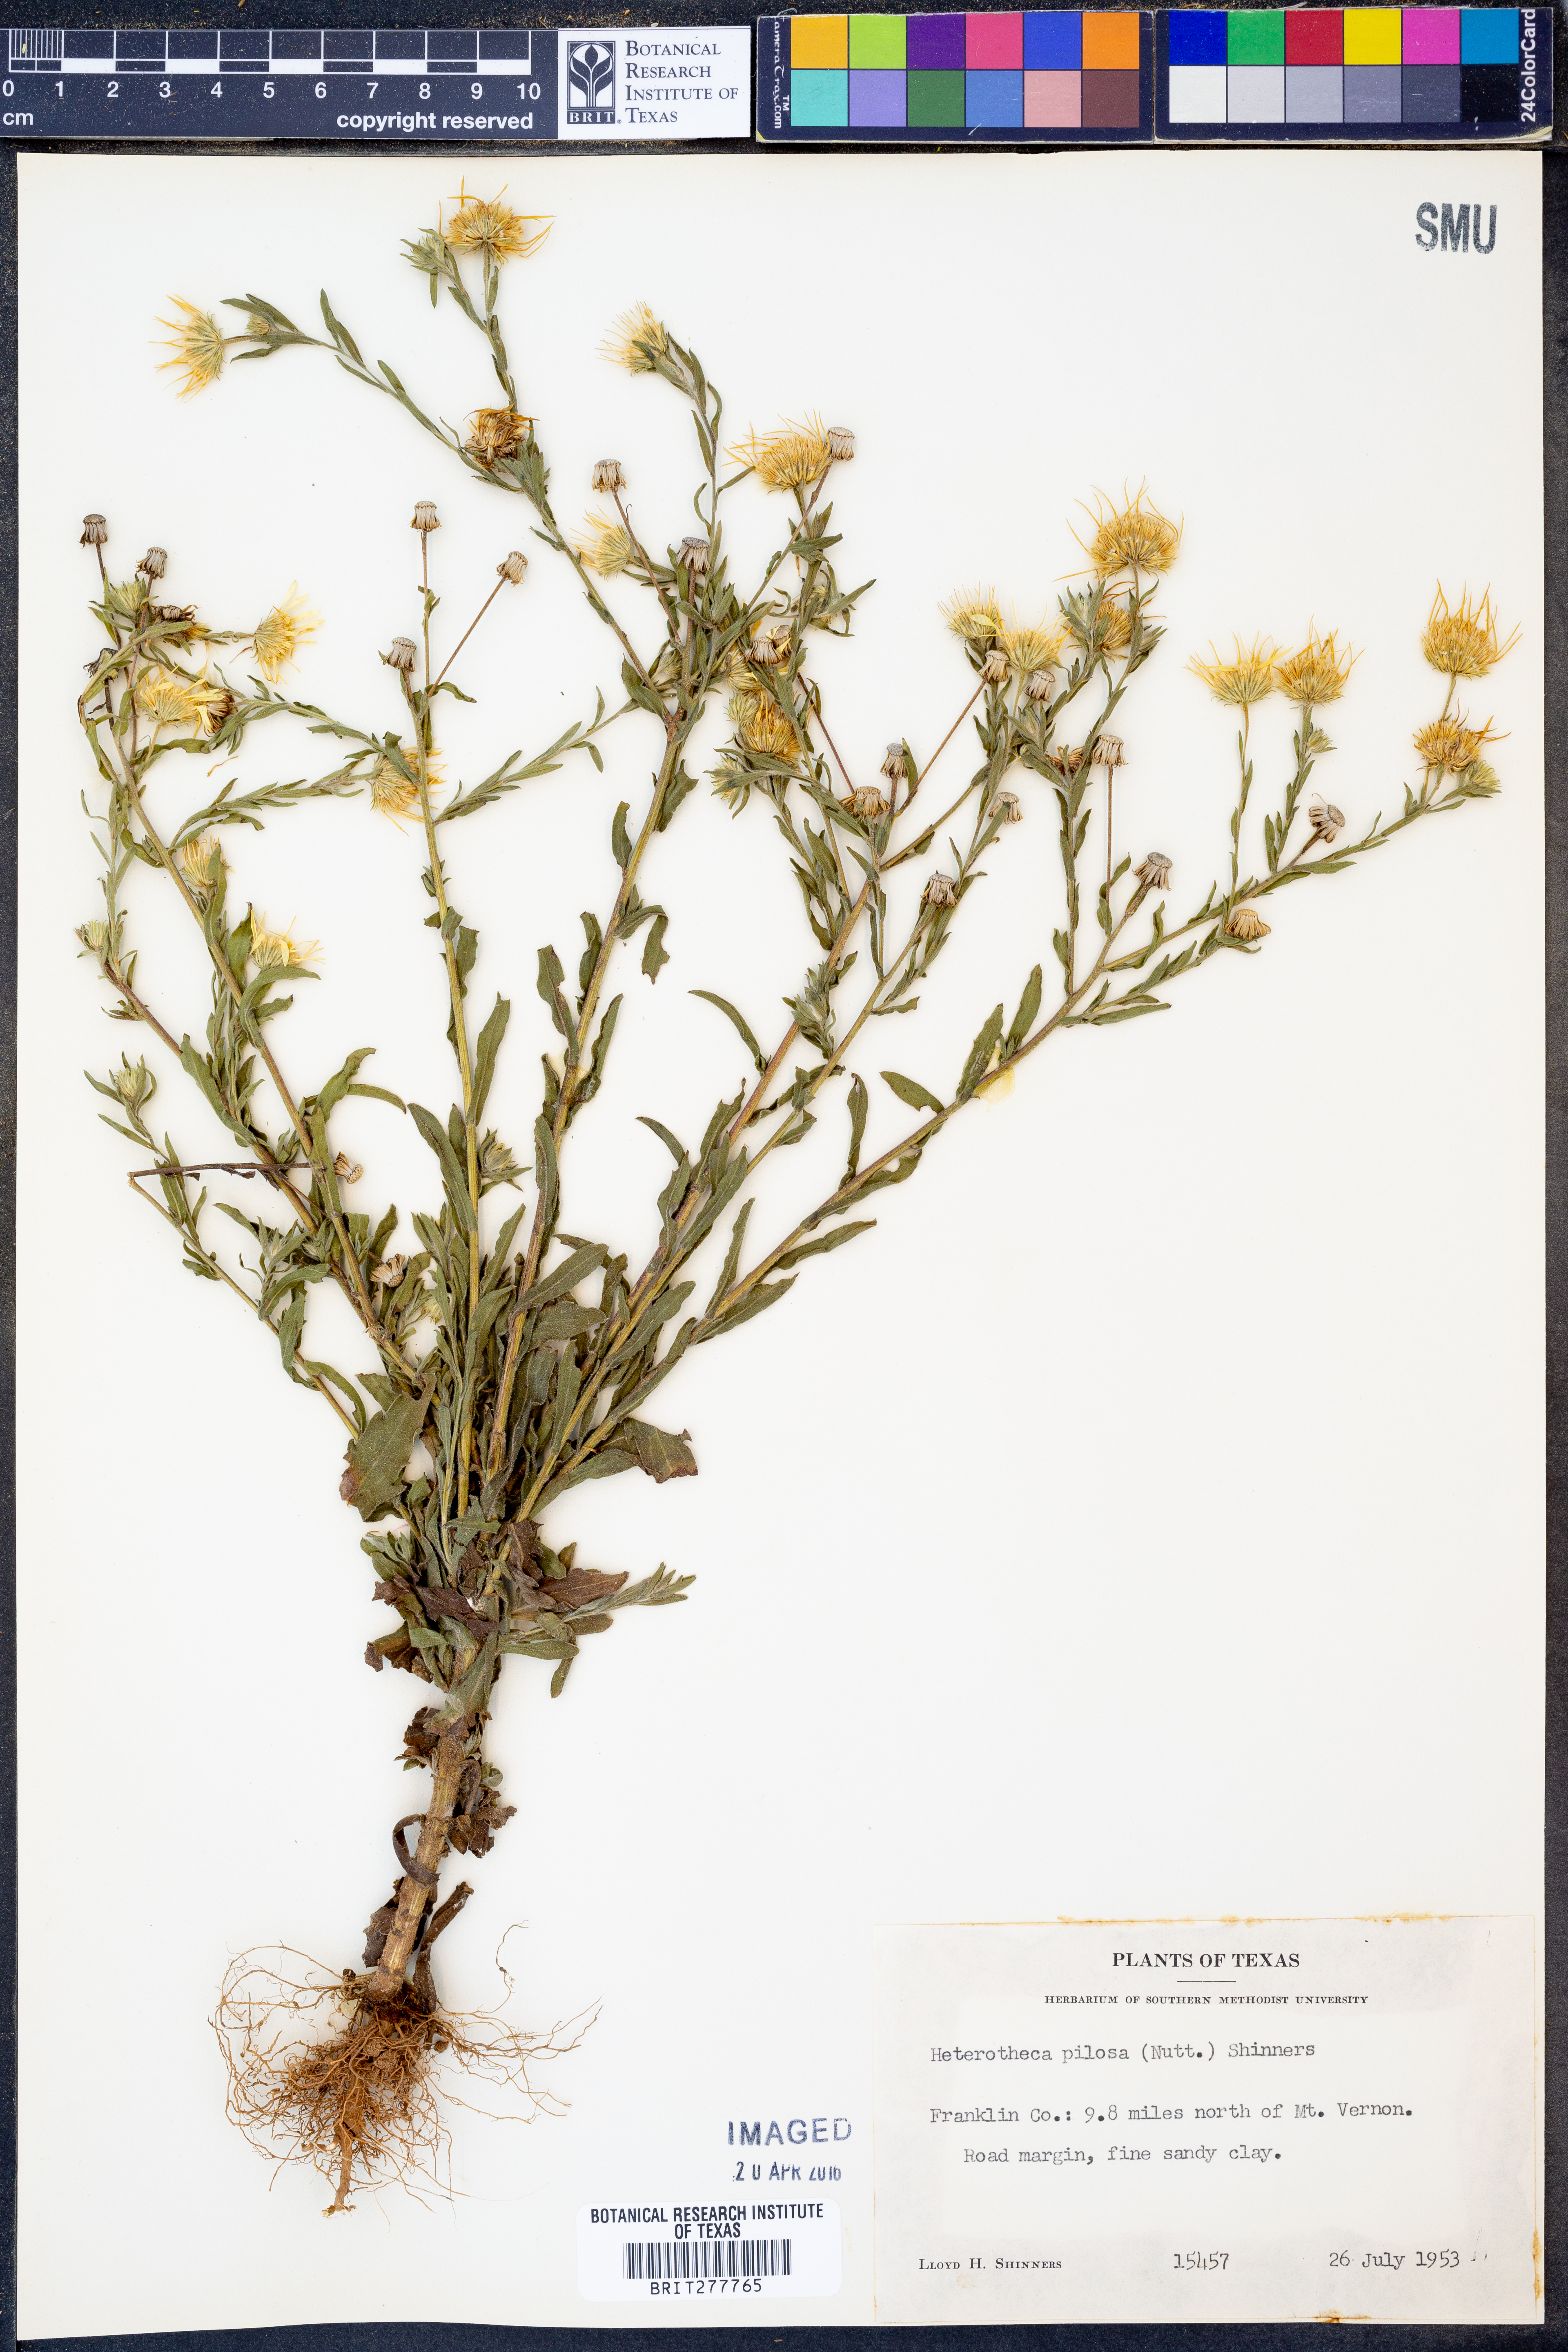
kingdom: Plantae
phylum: Tracheophyta
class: Magnoliopsida
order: Asterales
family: Asteraceae
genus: Bradburia
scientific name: Bradburia pilosa
